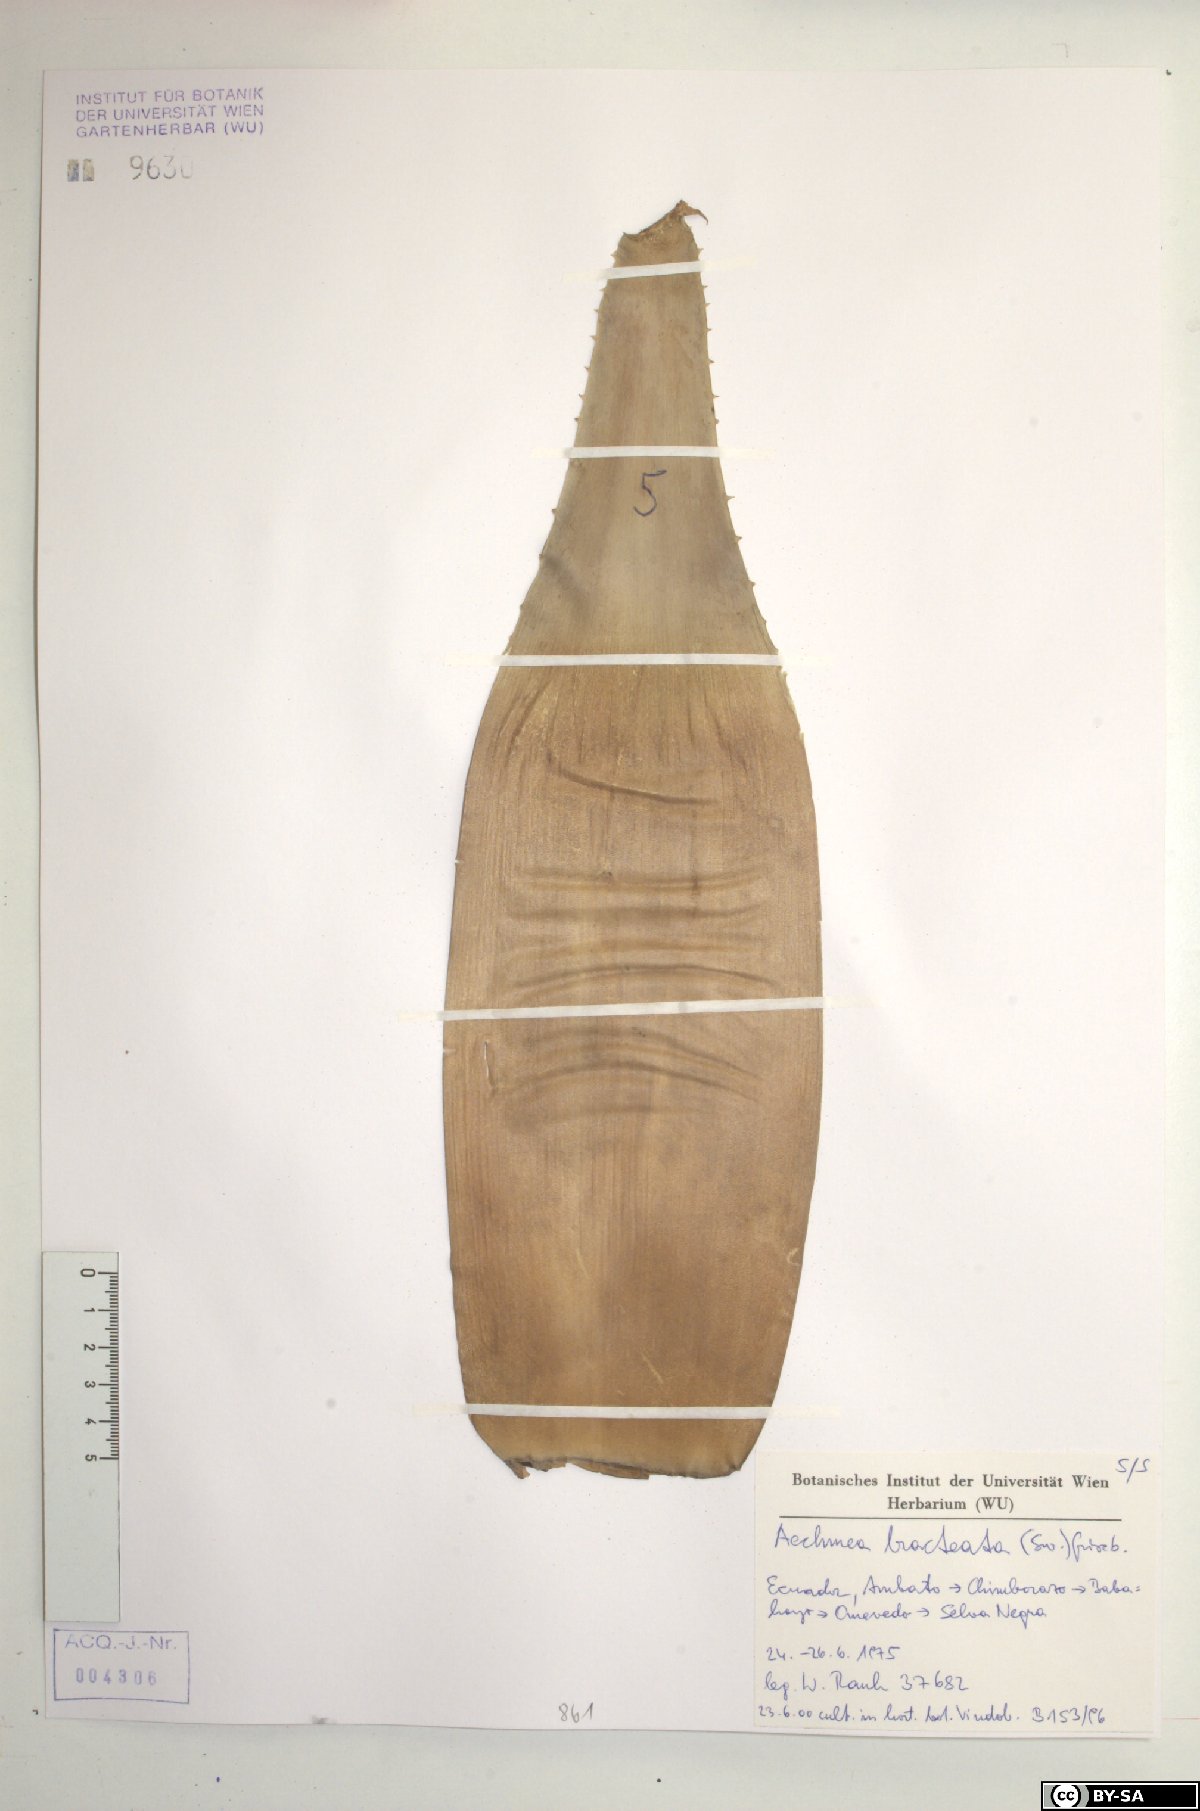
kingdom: Plantae
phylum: Tracheophyta
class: Liliopsida
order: Poales
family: Bromeliaceae
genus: Aechmea
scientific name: Aechmea bracteata
